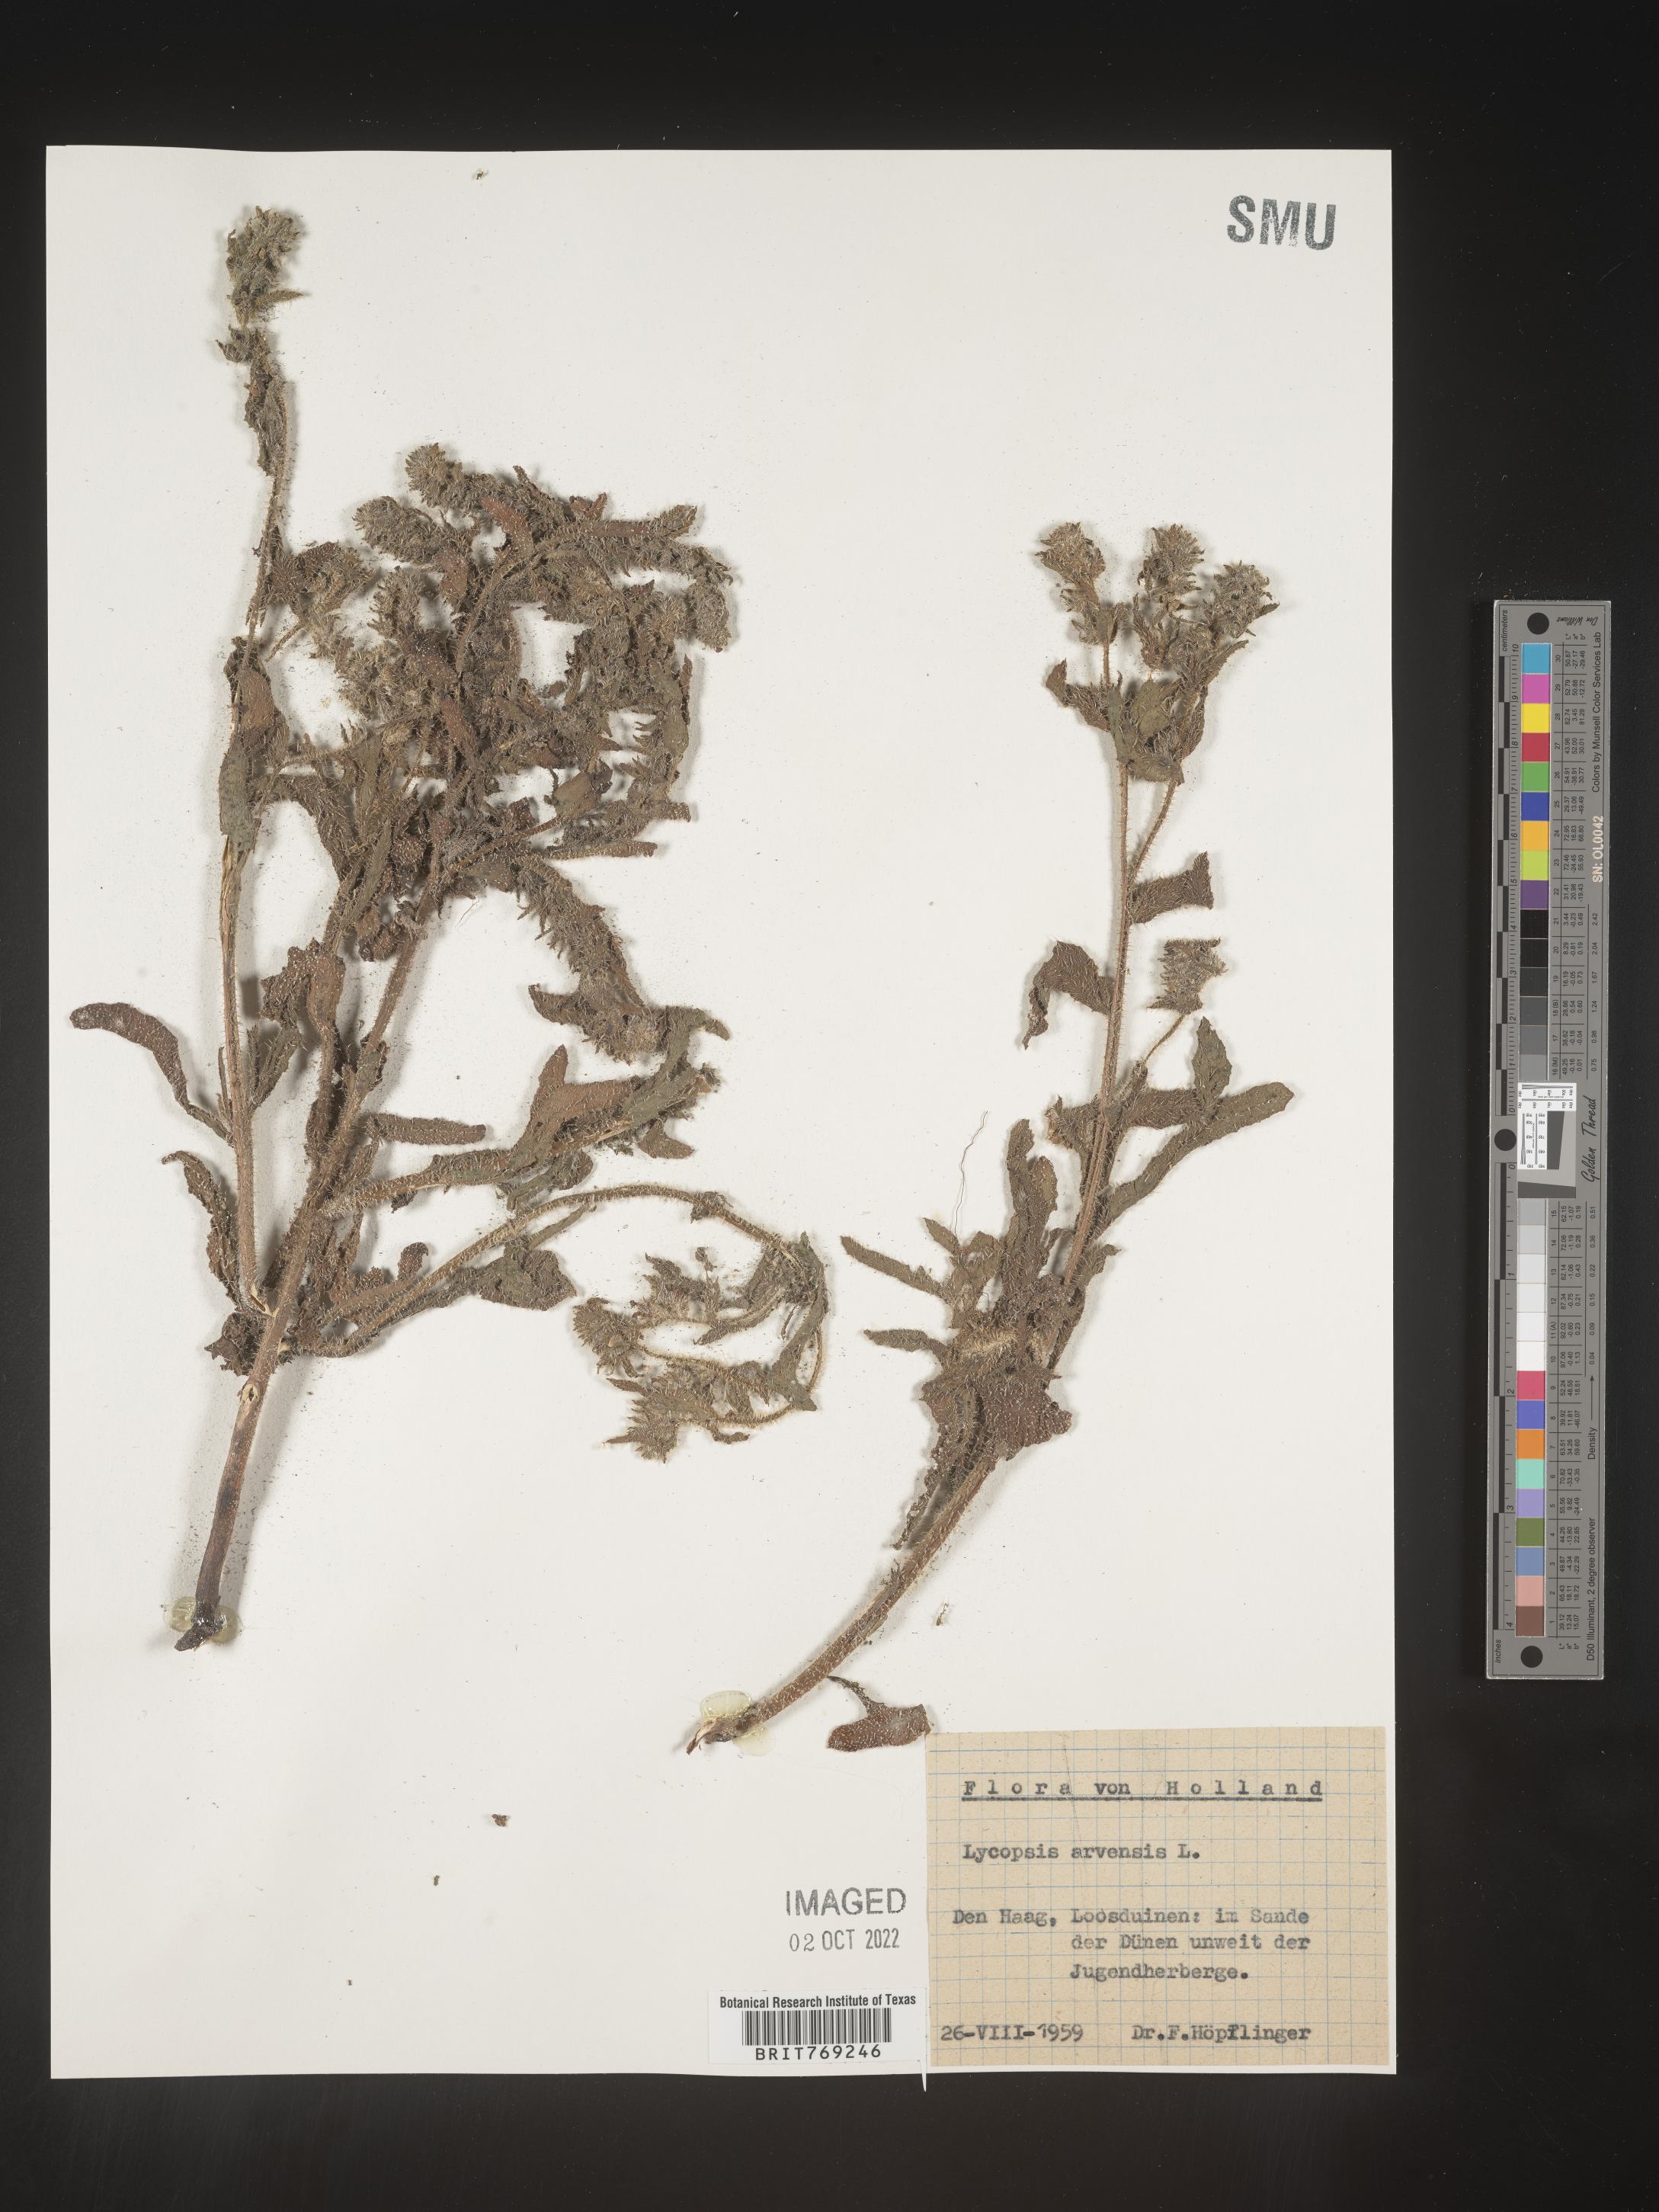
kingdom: Plantae
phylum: Tracheophyta
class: Magnoliopsida
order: Boraginales
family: Boraginaceae
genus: Lycopsis
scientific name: Lycopsis
